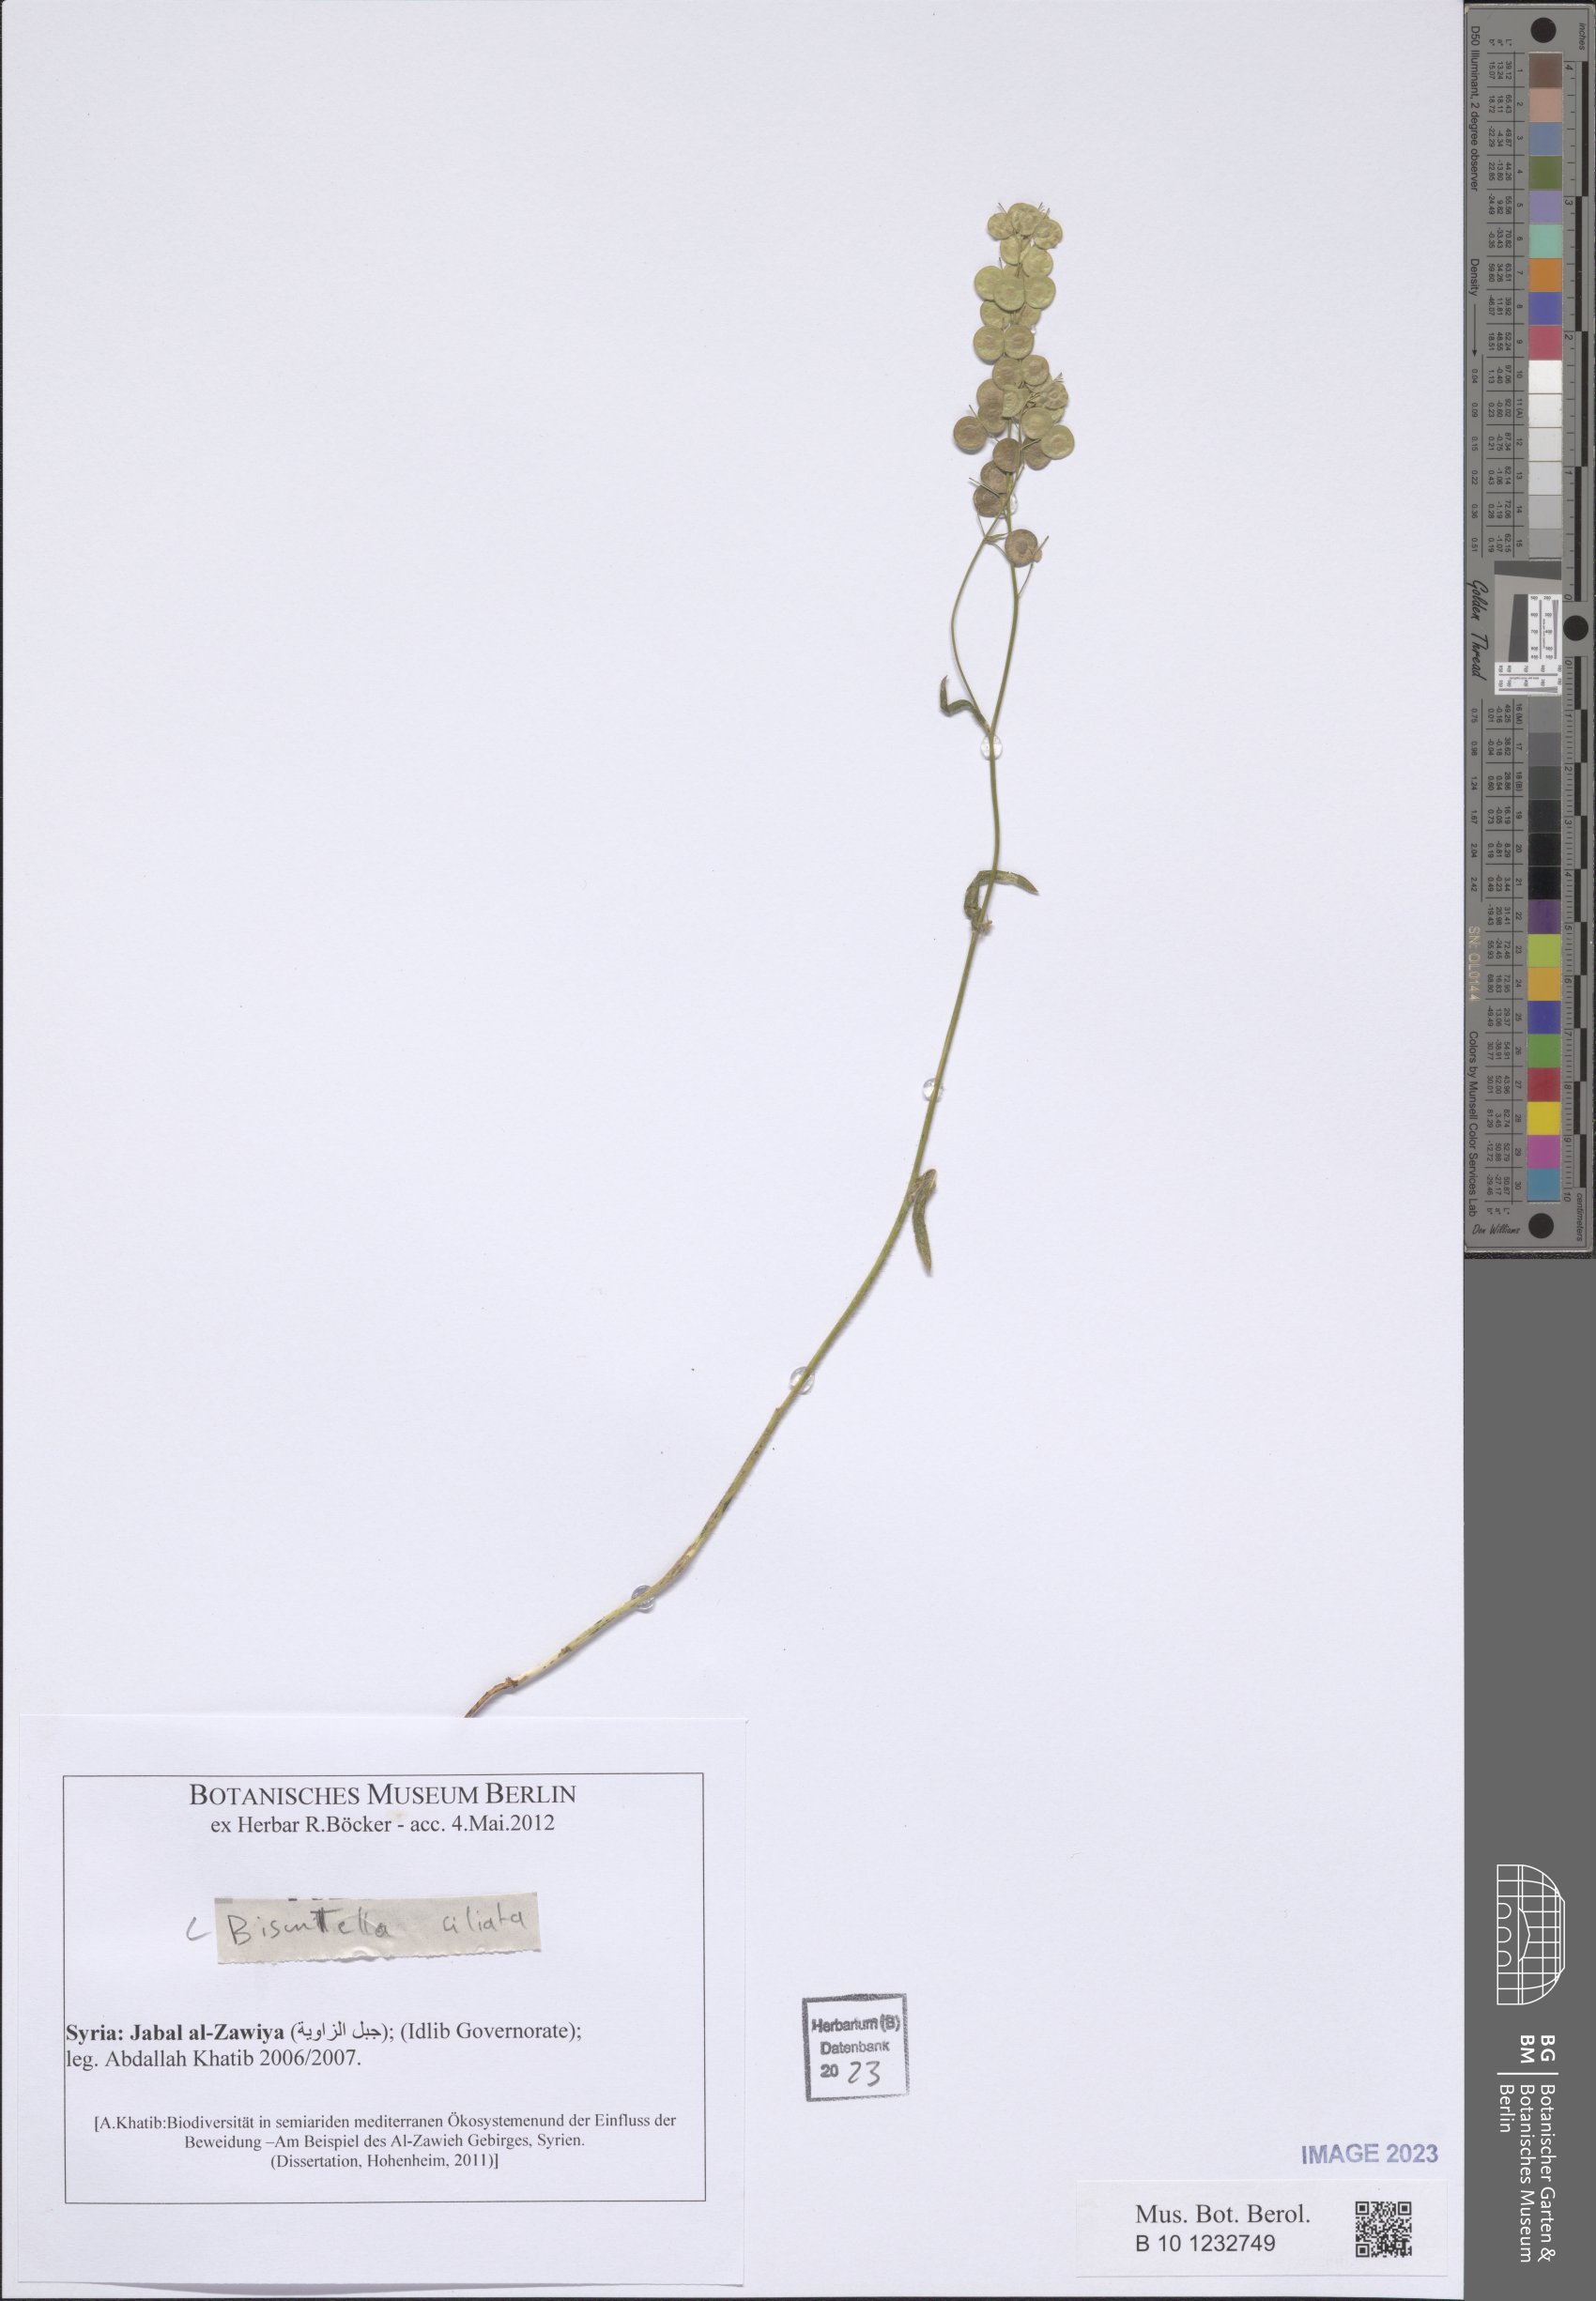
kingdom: Plantae
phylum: Tracheophyta
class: Magnoliopsida
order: Brassicales
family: Brassicaceae
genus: Biscutella
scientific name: Biscutella didyma
